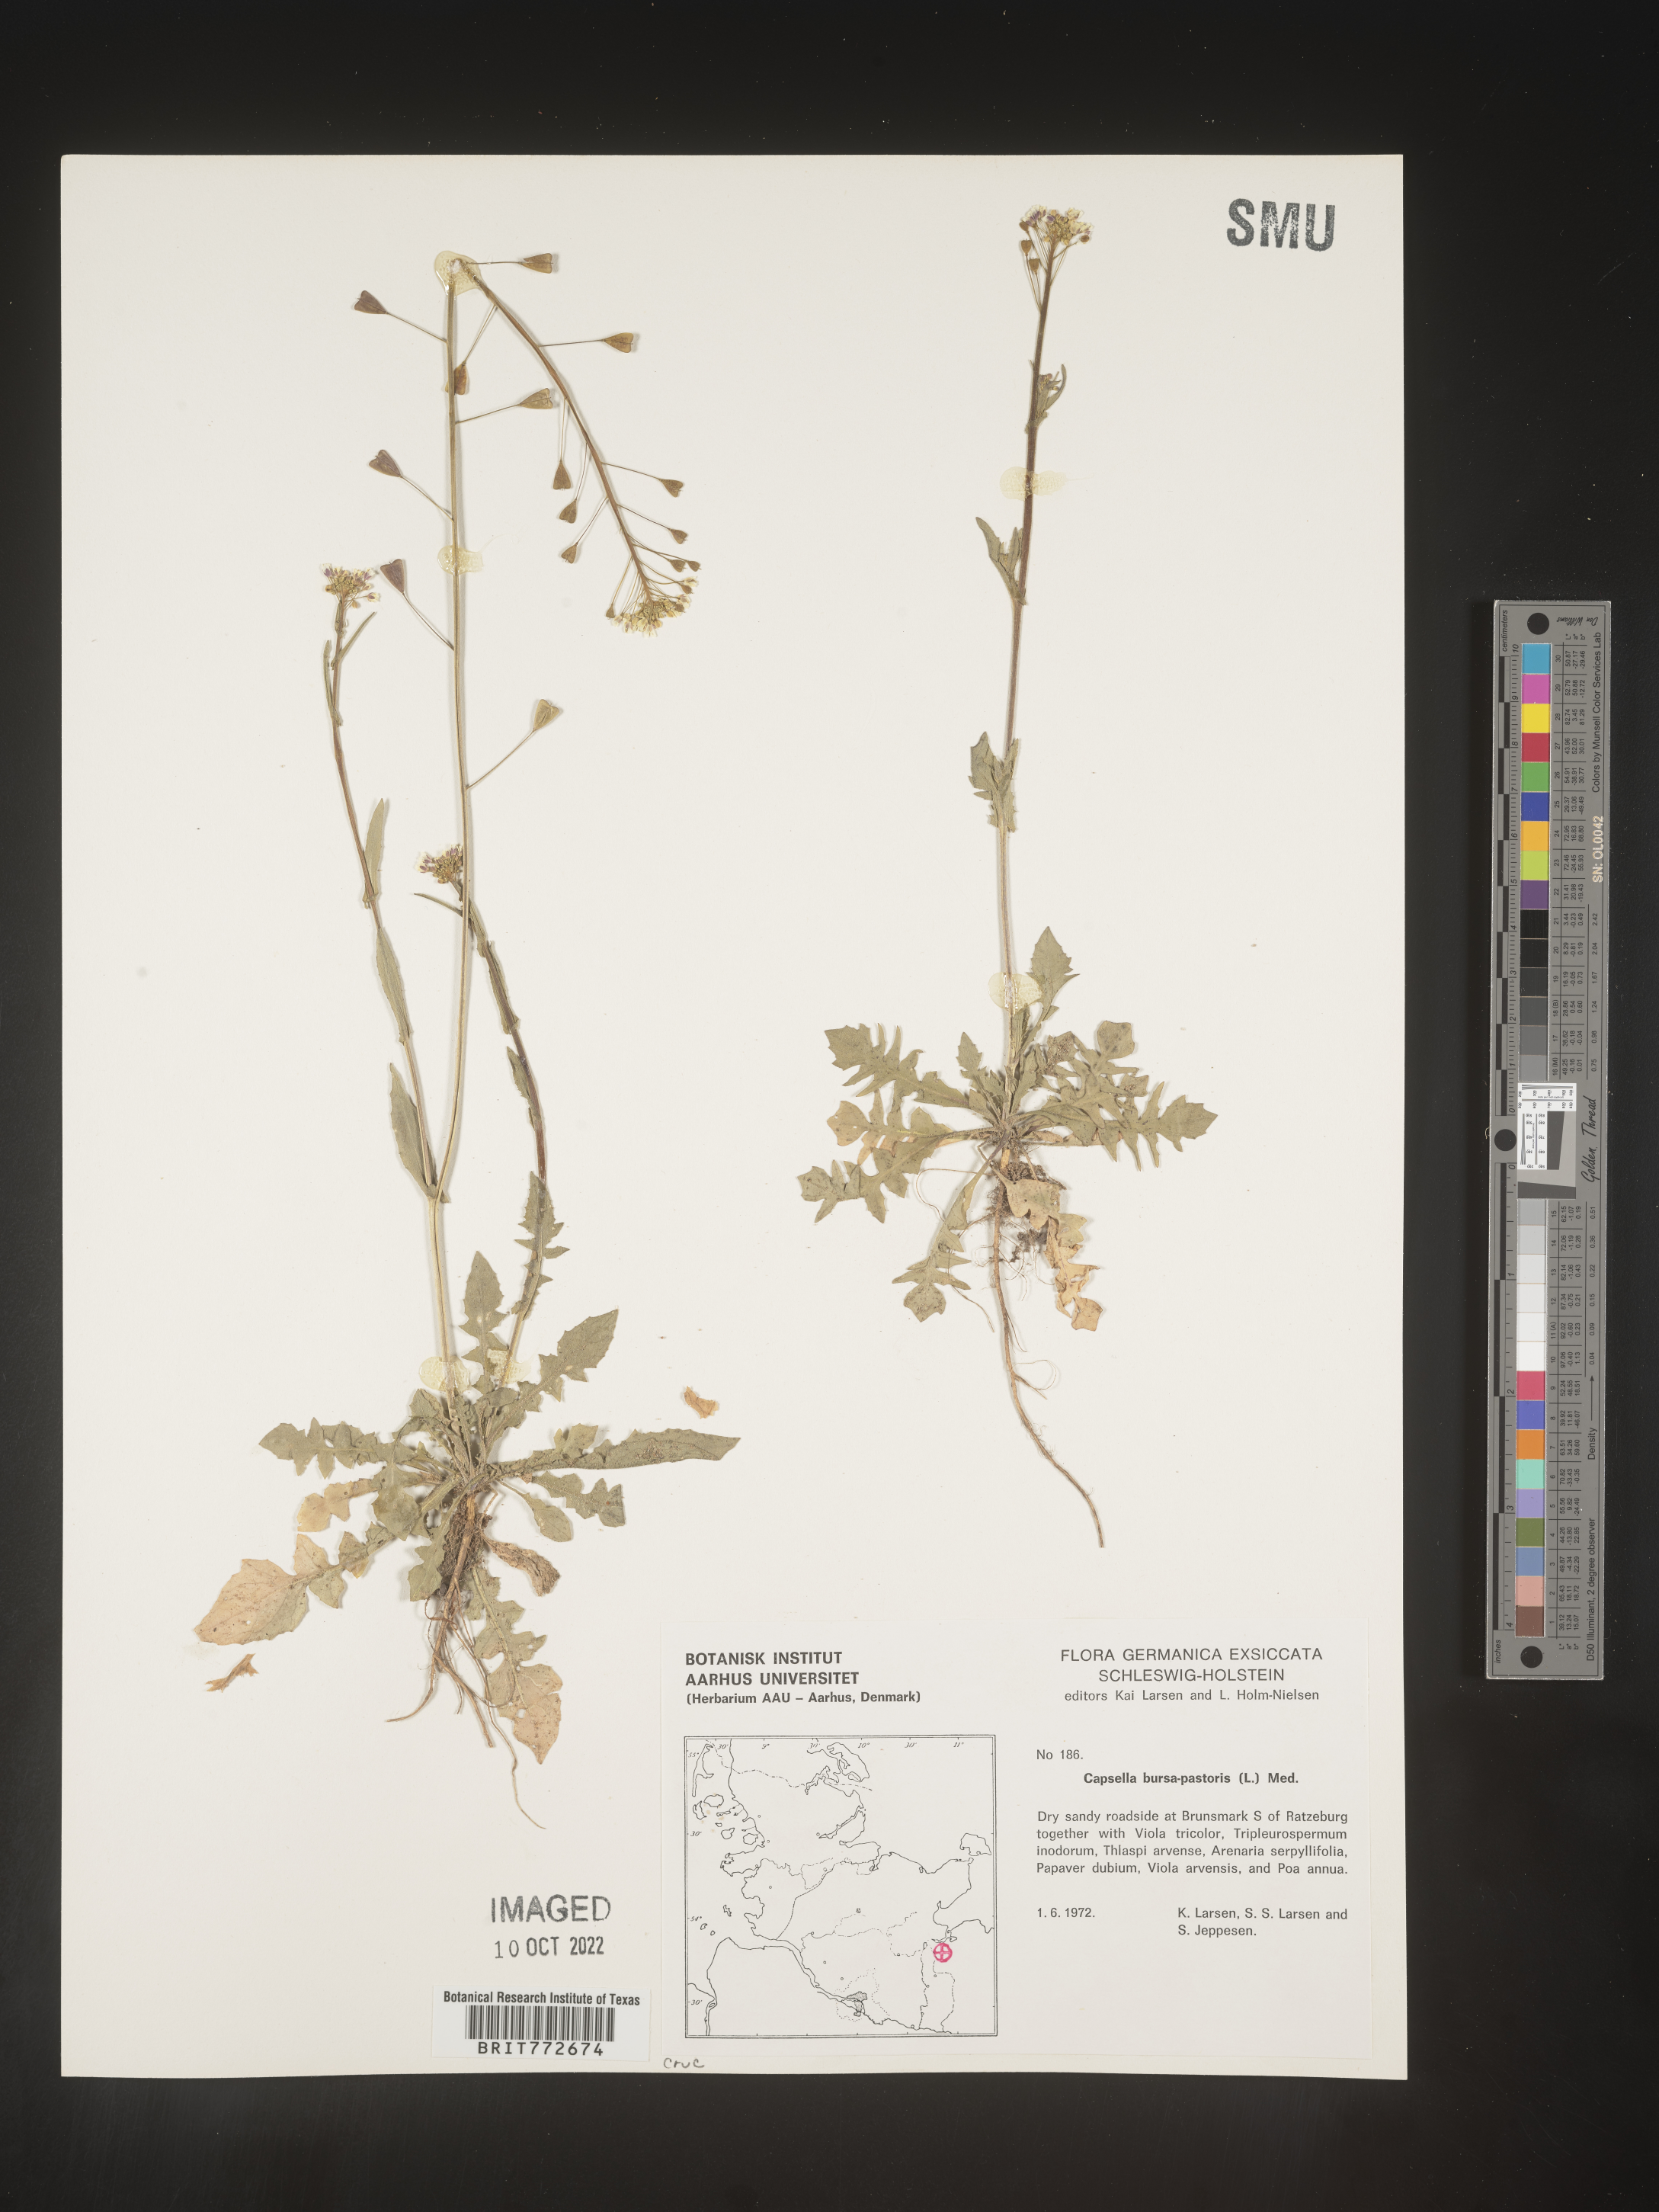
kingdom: Plantae
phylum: Tracheophyta
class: Magnoliopsida
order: Brassicales
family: Brassicaceae
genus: Capsella
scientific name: Capsella
